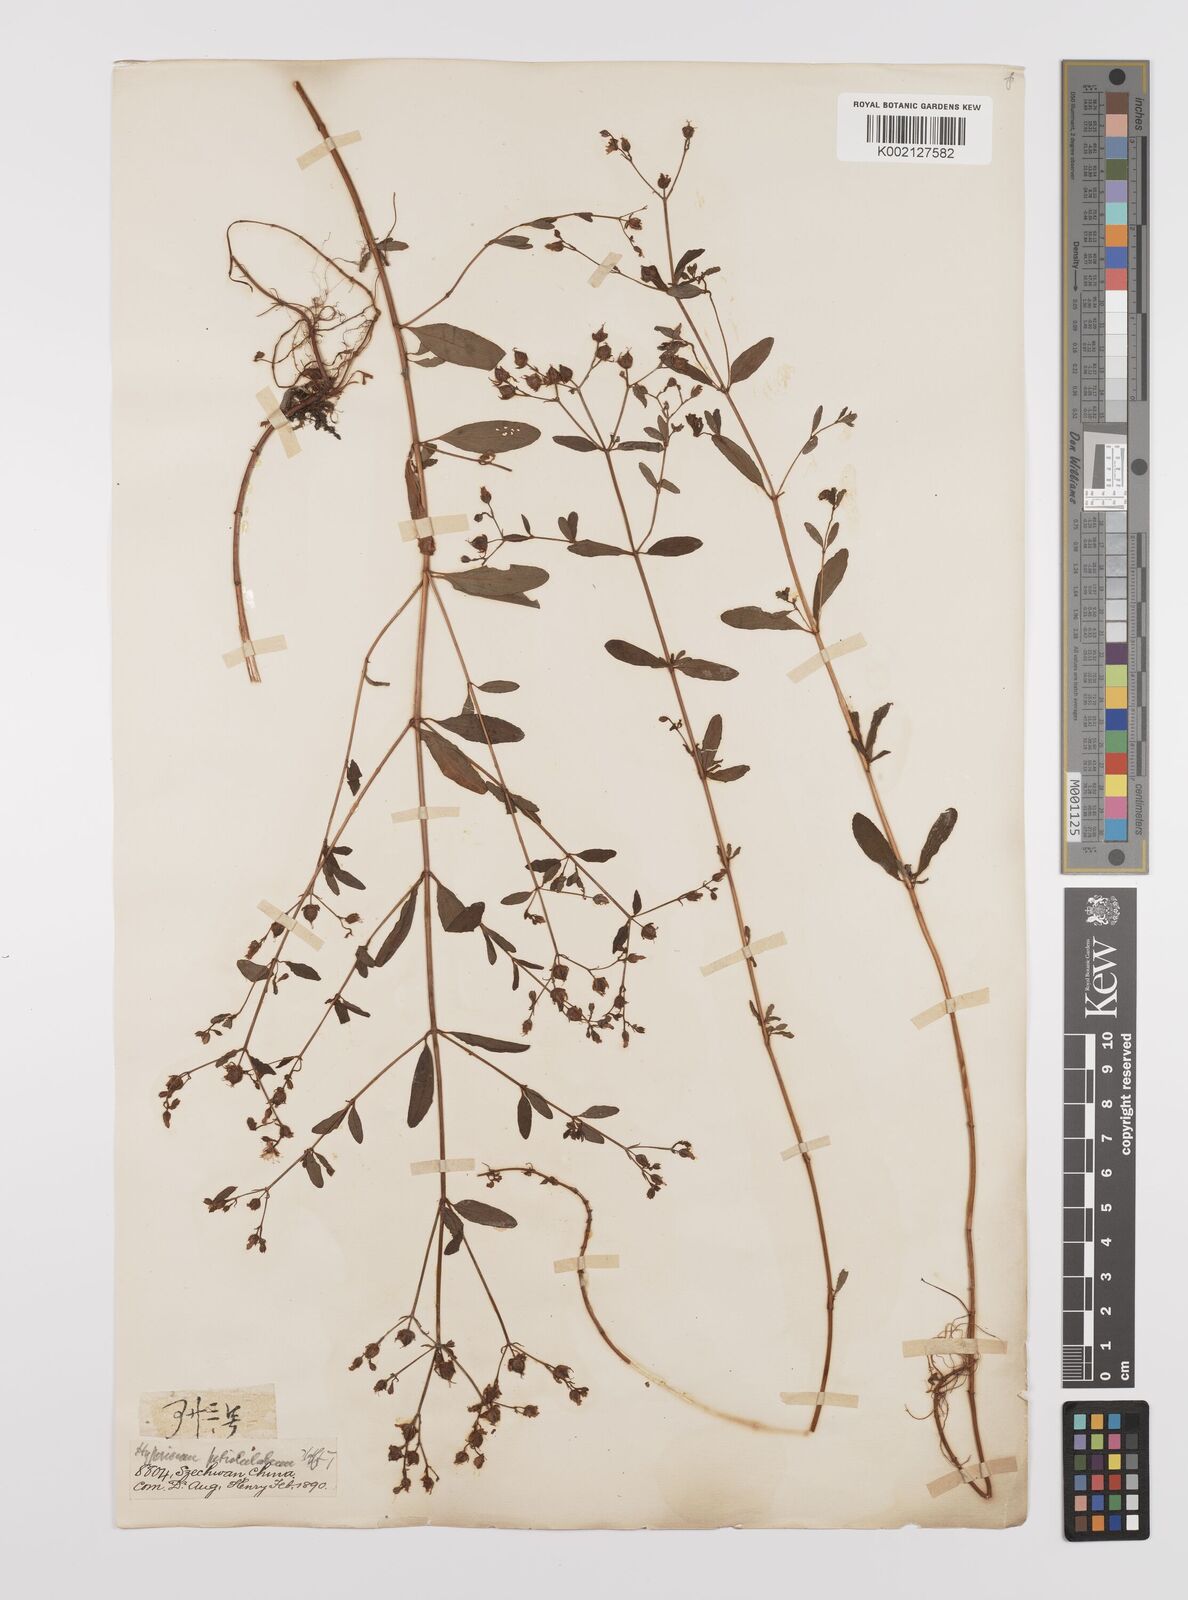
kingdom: Plantae
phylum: Tracheophyta
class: Magnoliopsida
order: Malpighiales
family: Hypericaceae
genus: Hypericum
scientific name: Hypericum petiolulatum
